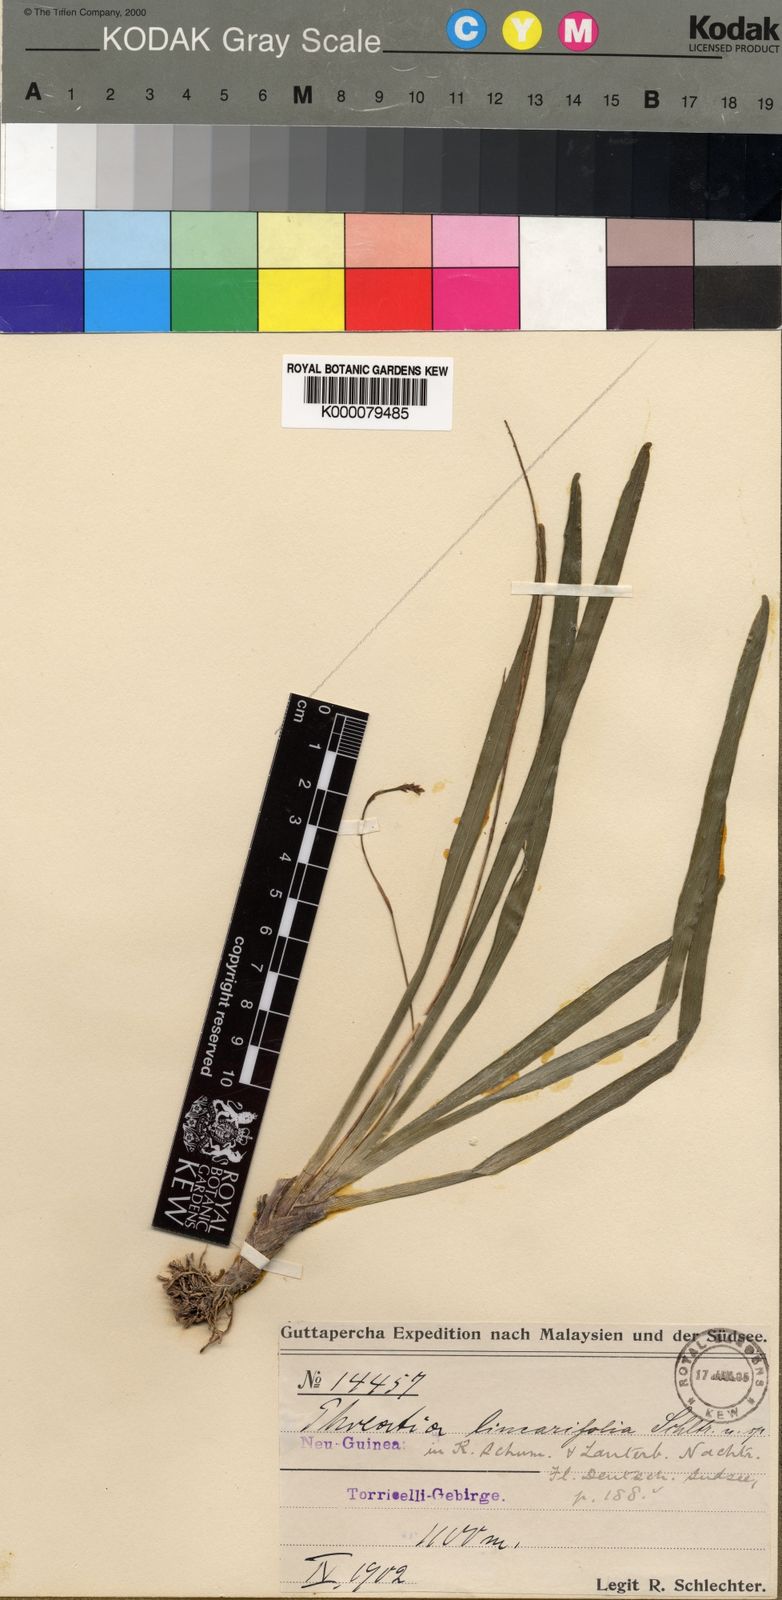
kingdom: Plantae
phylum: Tracheophyta
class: Liliopsida
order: Asparagales
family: Orchidaceae
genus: Phreatia
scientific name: Phreatia linearifolia
